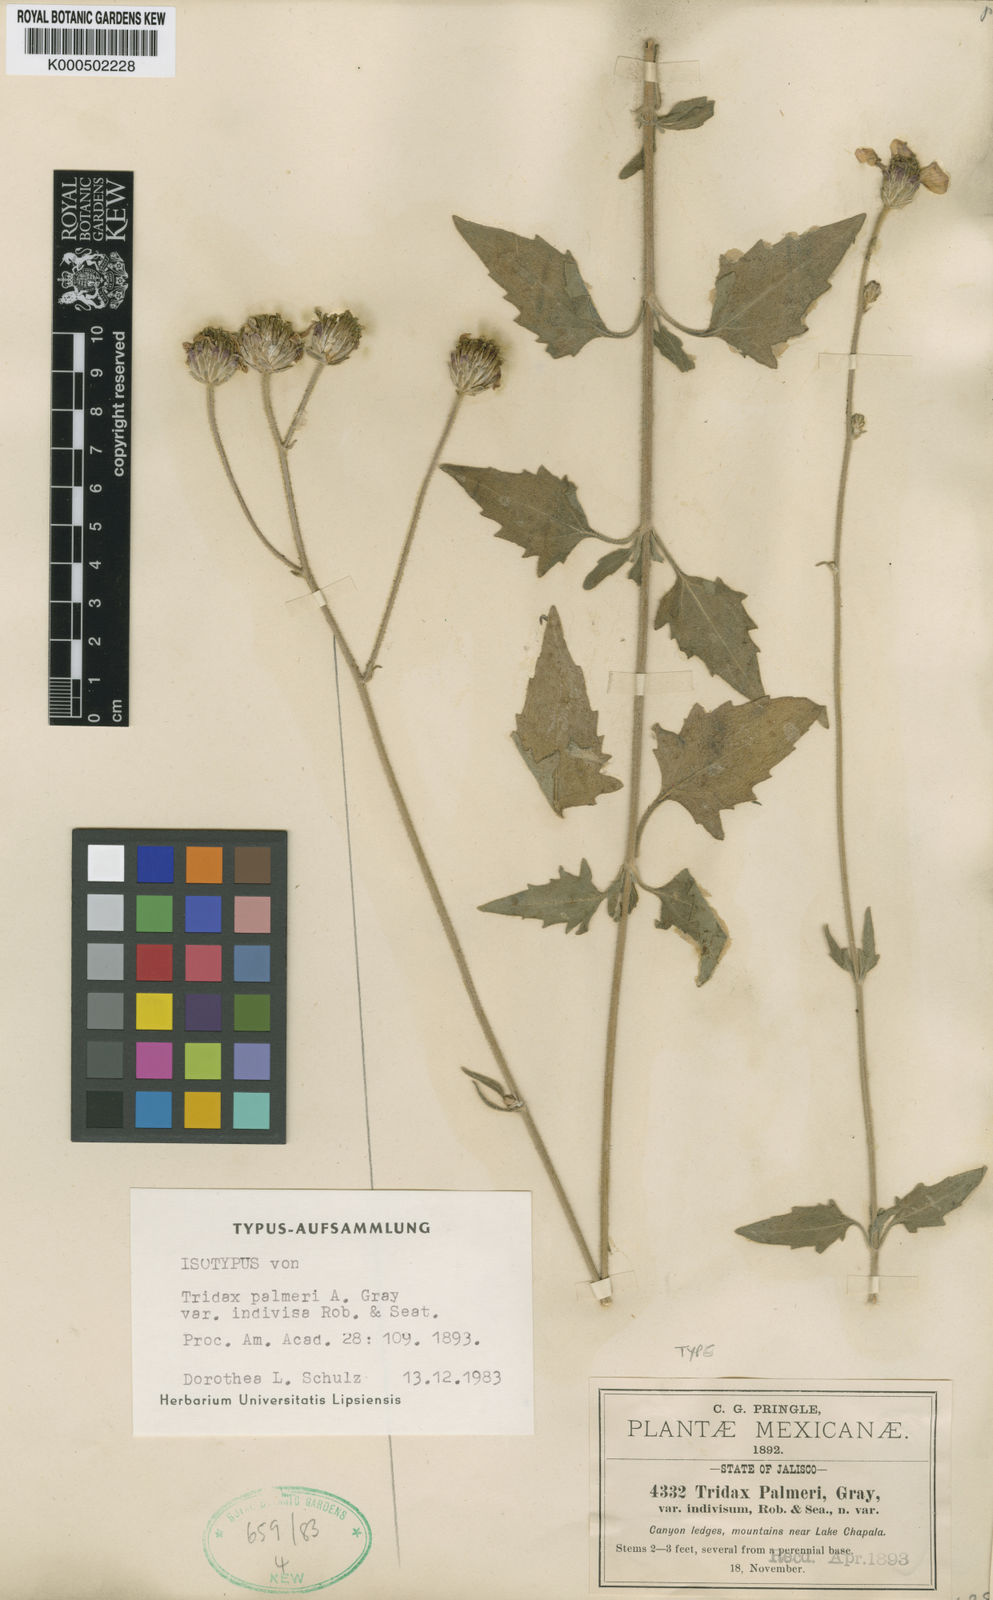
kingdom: Plantae
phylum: Tracheophyta
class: Magnoliopsida
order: Asterales
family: Asteraceae
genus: Tridax
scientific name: Tridax palmeri
